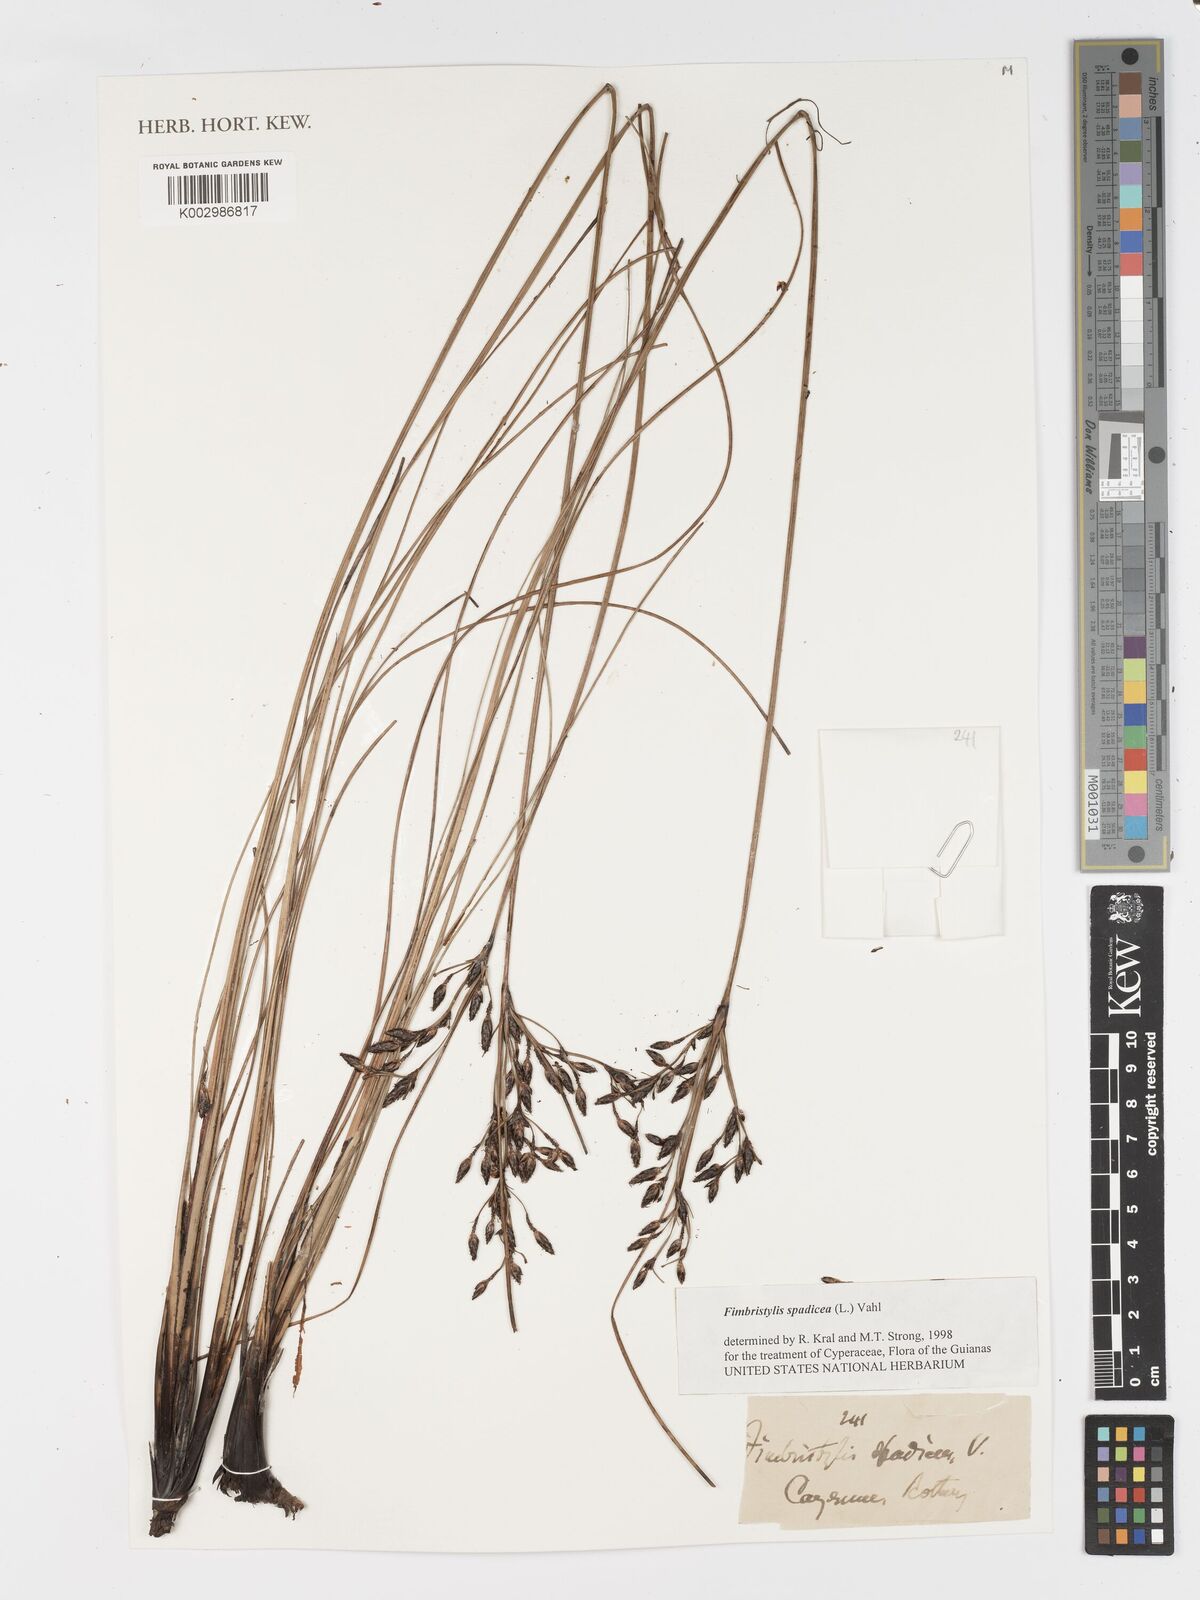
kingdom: Plantae
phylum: Tracheophyta
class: Liliopsida
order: Poales
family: Cyperaceae
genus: Fimbristylis
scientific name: Fimbristylis spadicea
